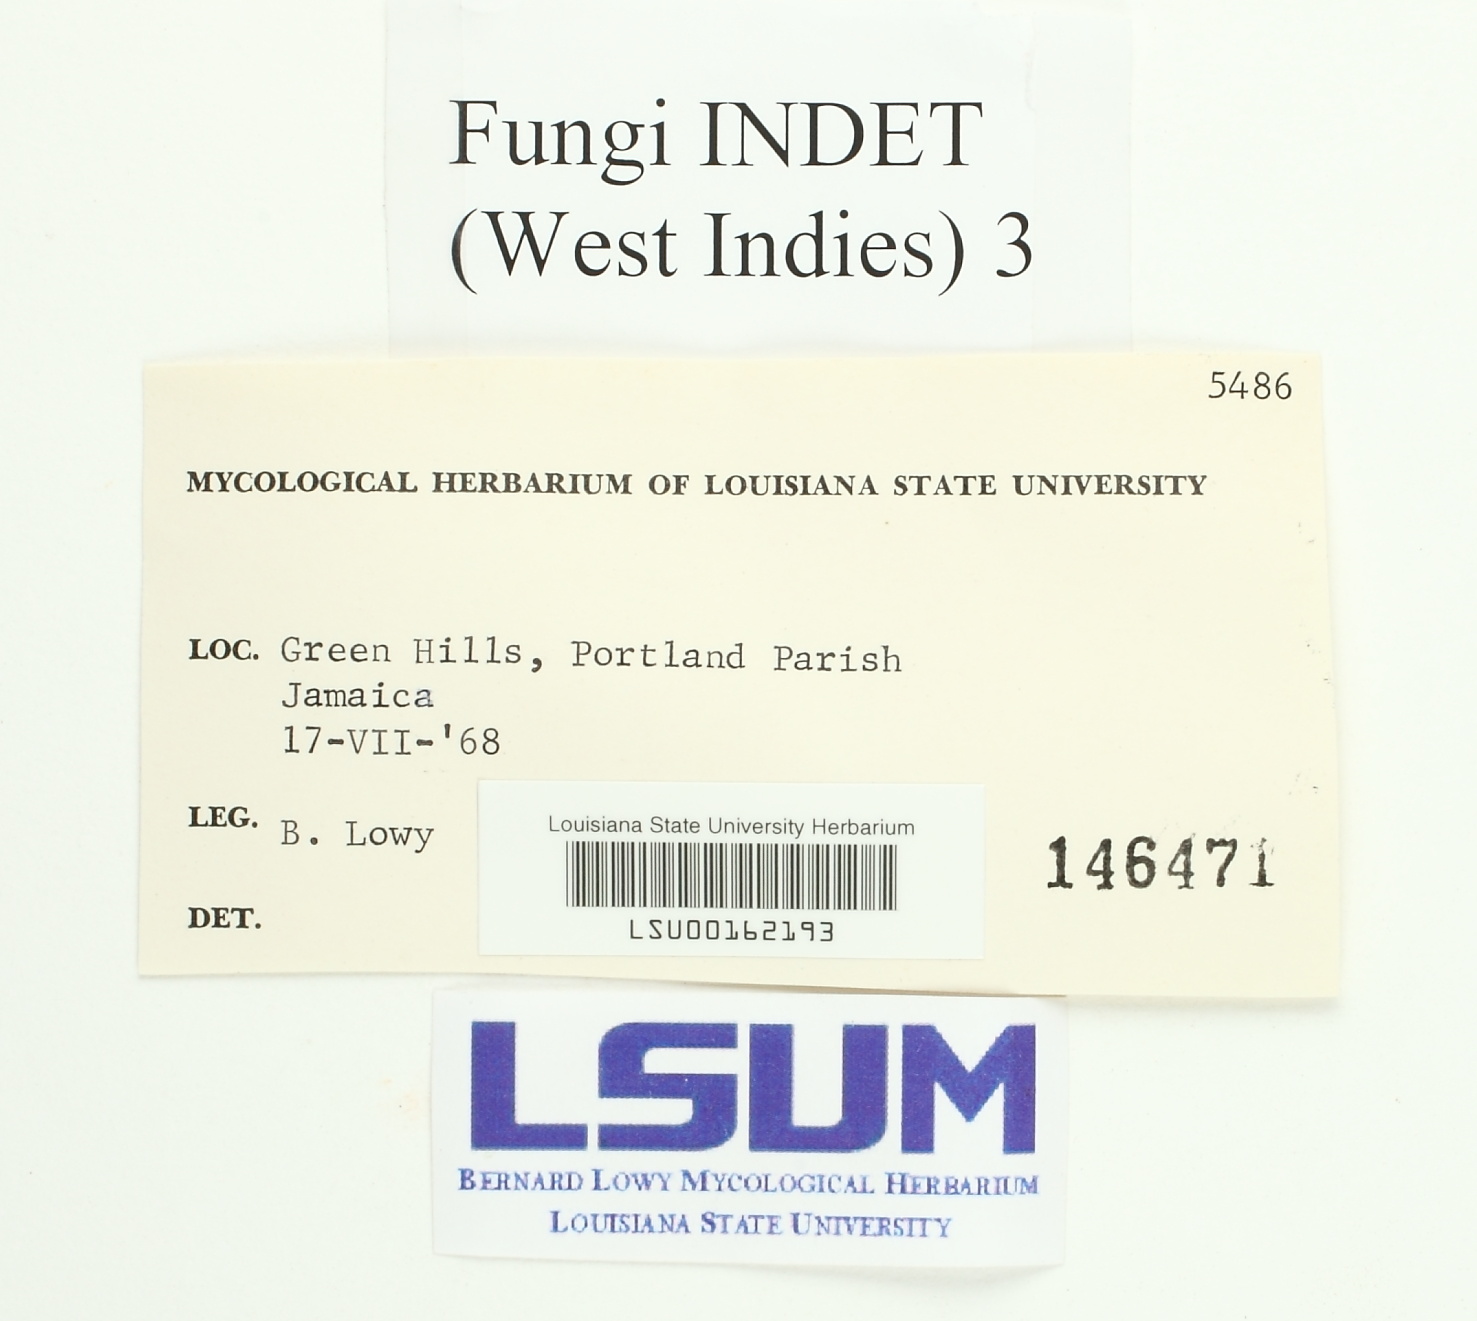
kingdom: Fungi
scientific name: Fungi
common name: Fungi
